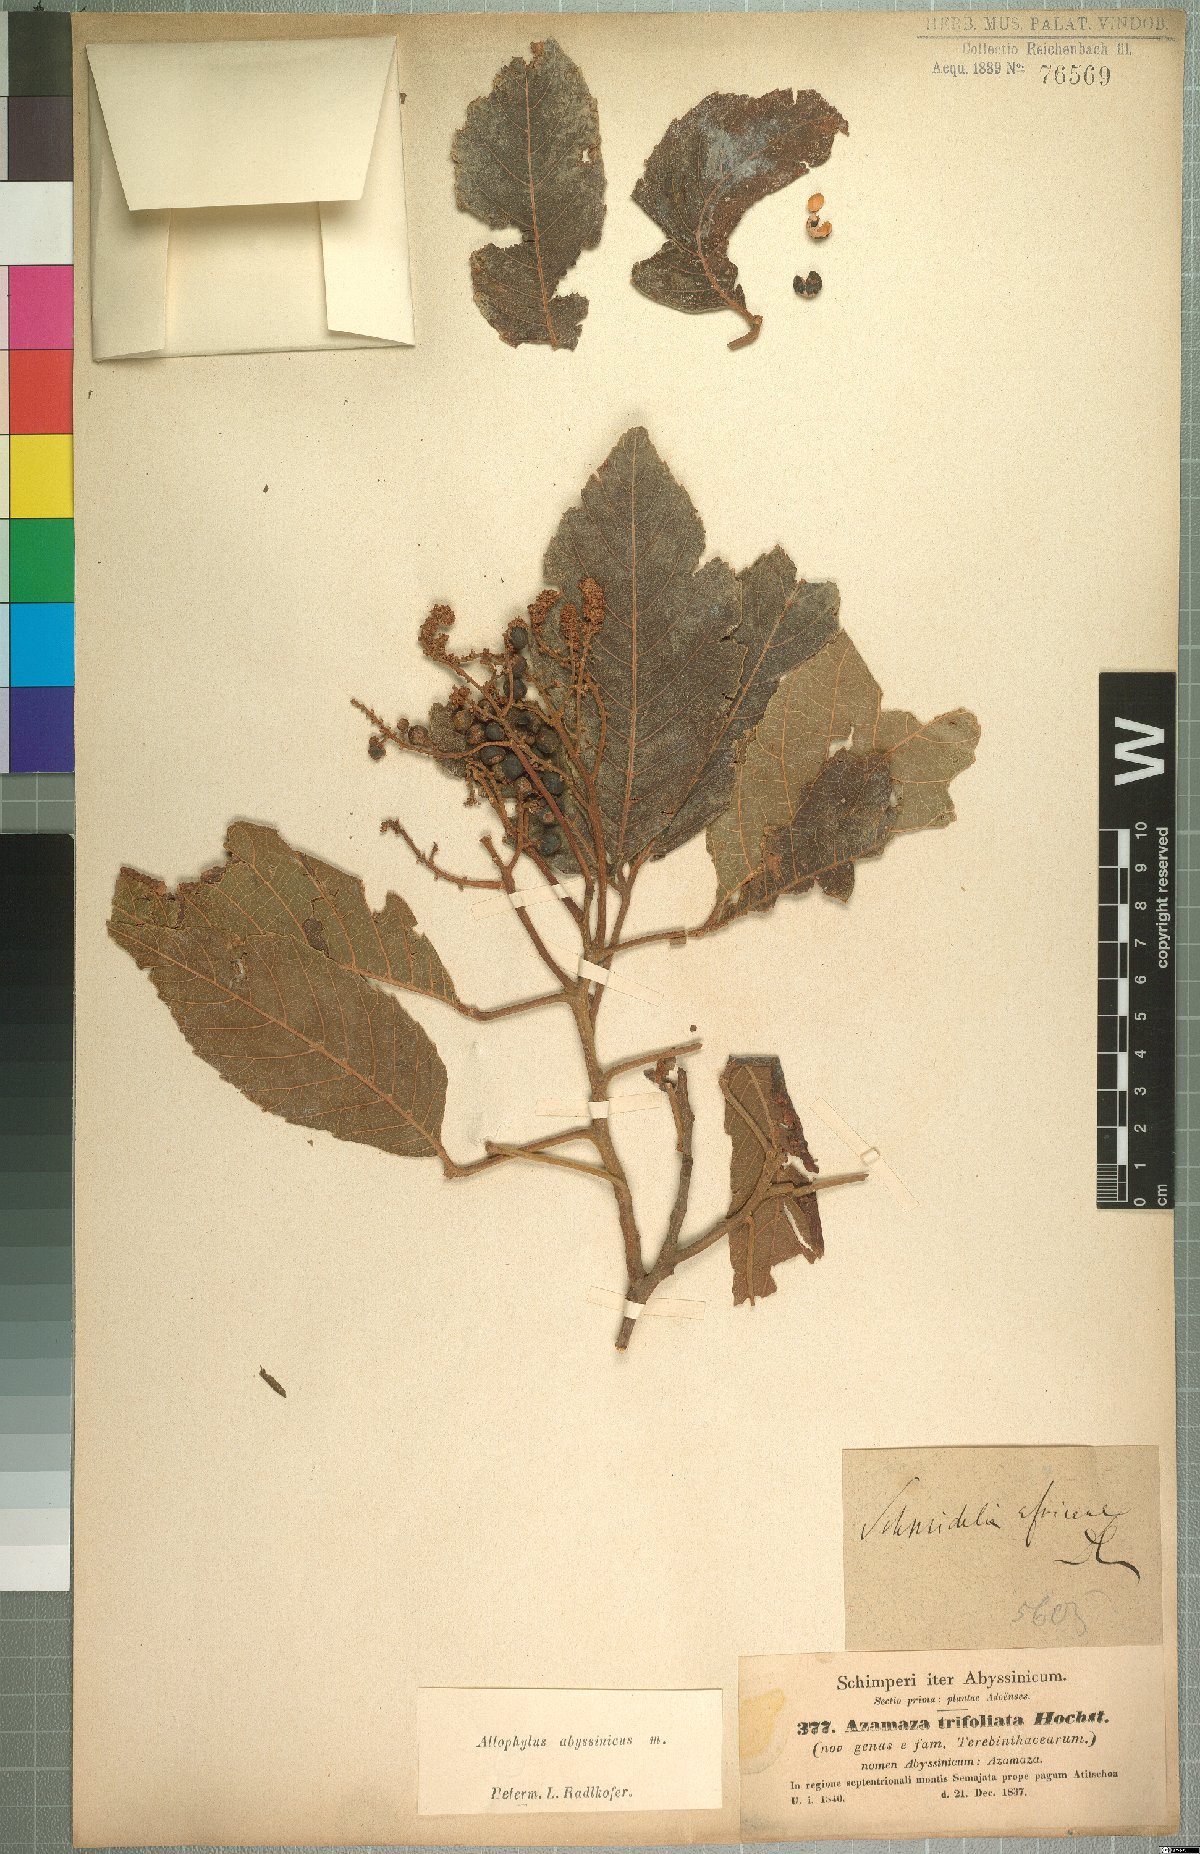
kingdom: Plantae
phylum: Tracheophyta
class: Magnoliopsida
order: Sapindales
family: Sapindaceae
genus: Allophylus
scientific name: Allophylus abyssinicus
